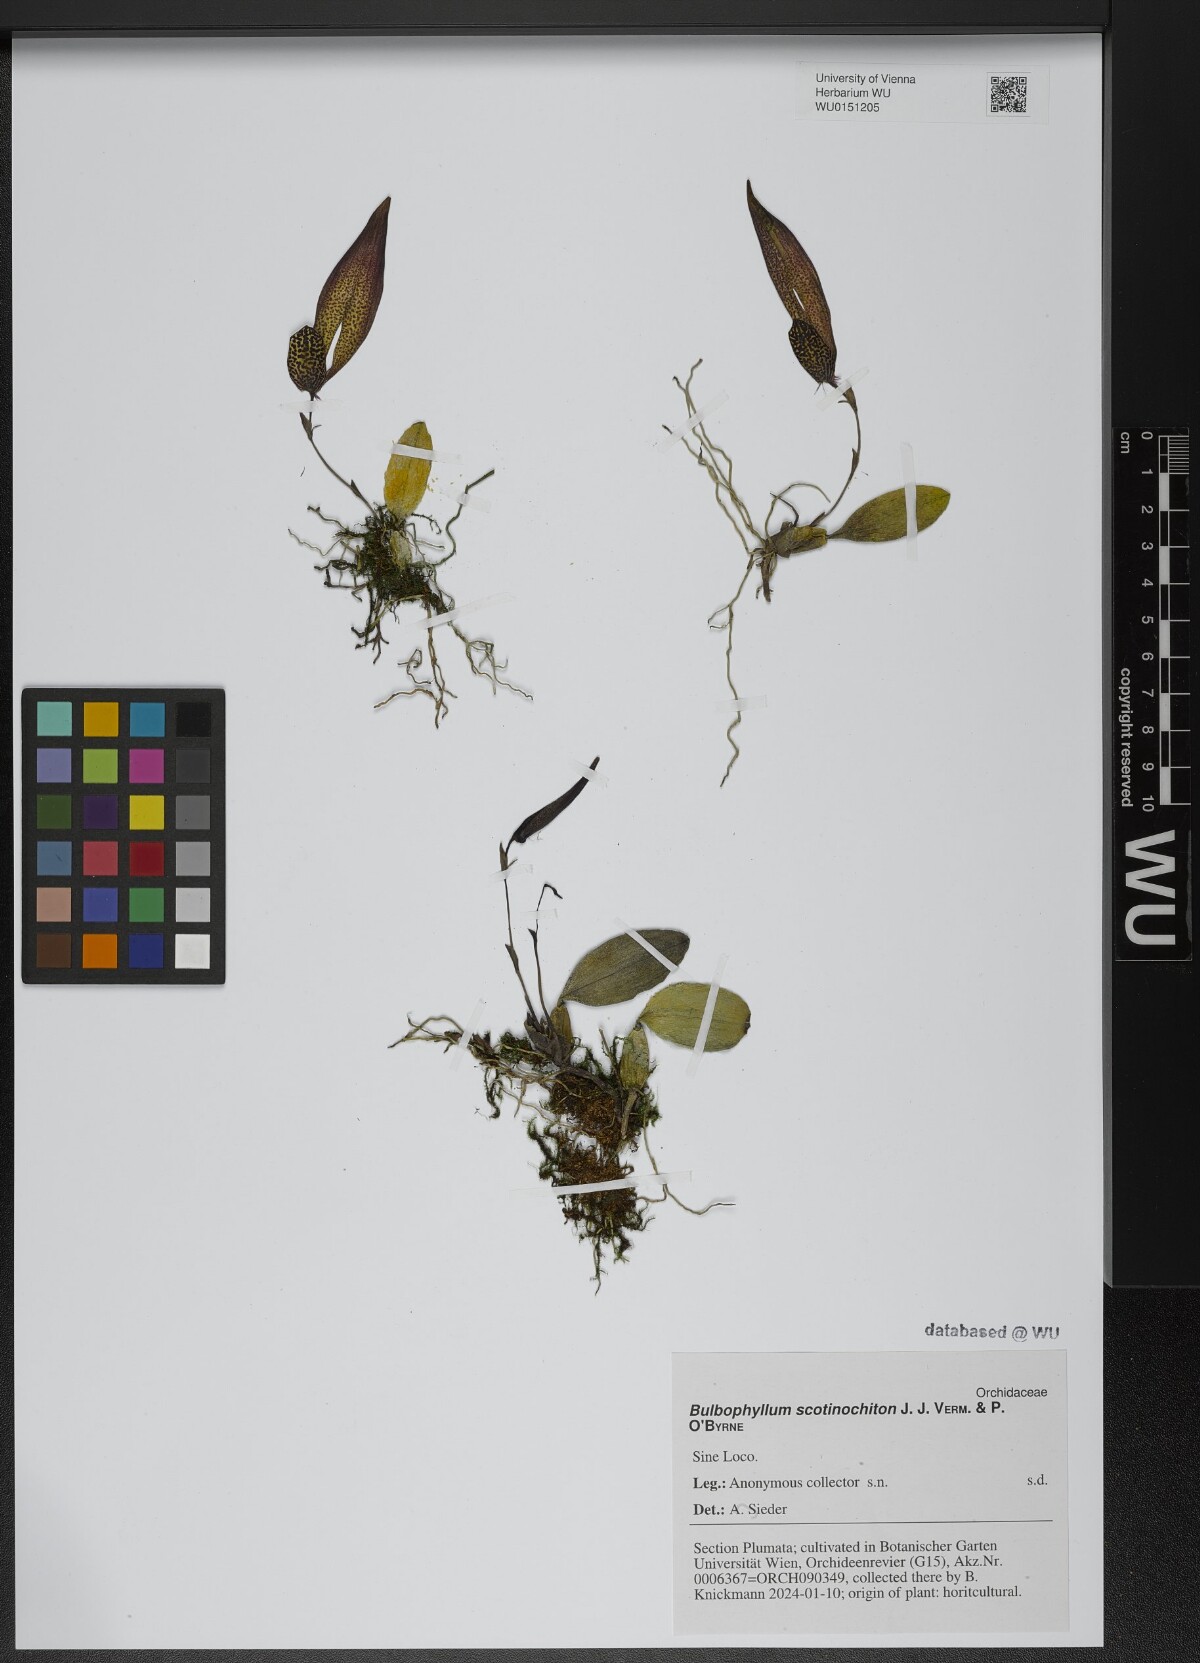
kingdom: Plantae
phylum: Tracheophyta
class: Liliopsida
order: Asparagales
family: Orchidaceae
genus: Bulbophyllum
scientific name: Bulbophyllum scotinochiton
